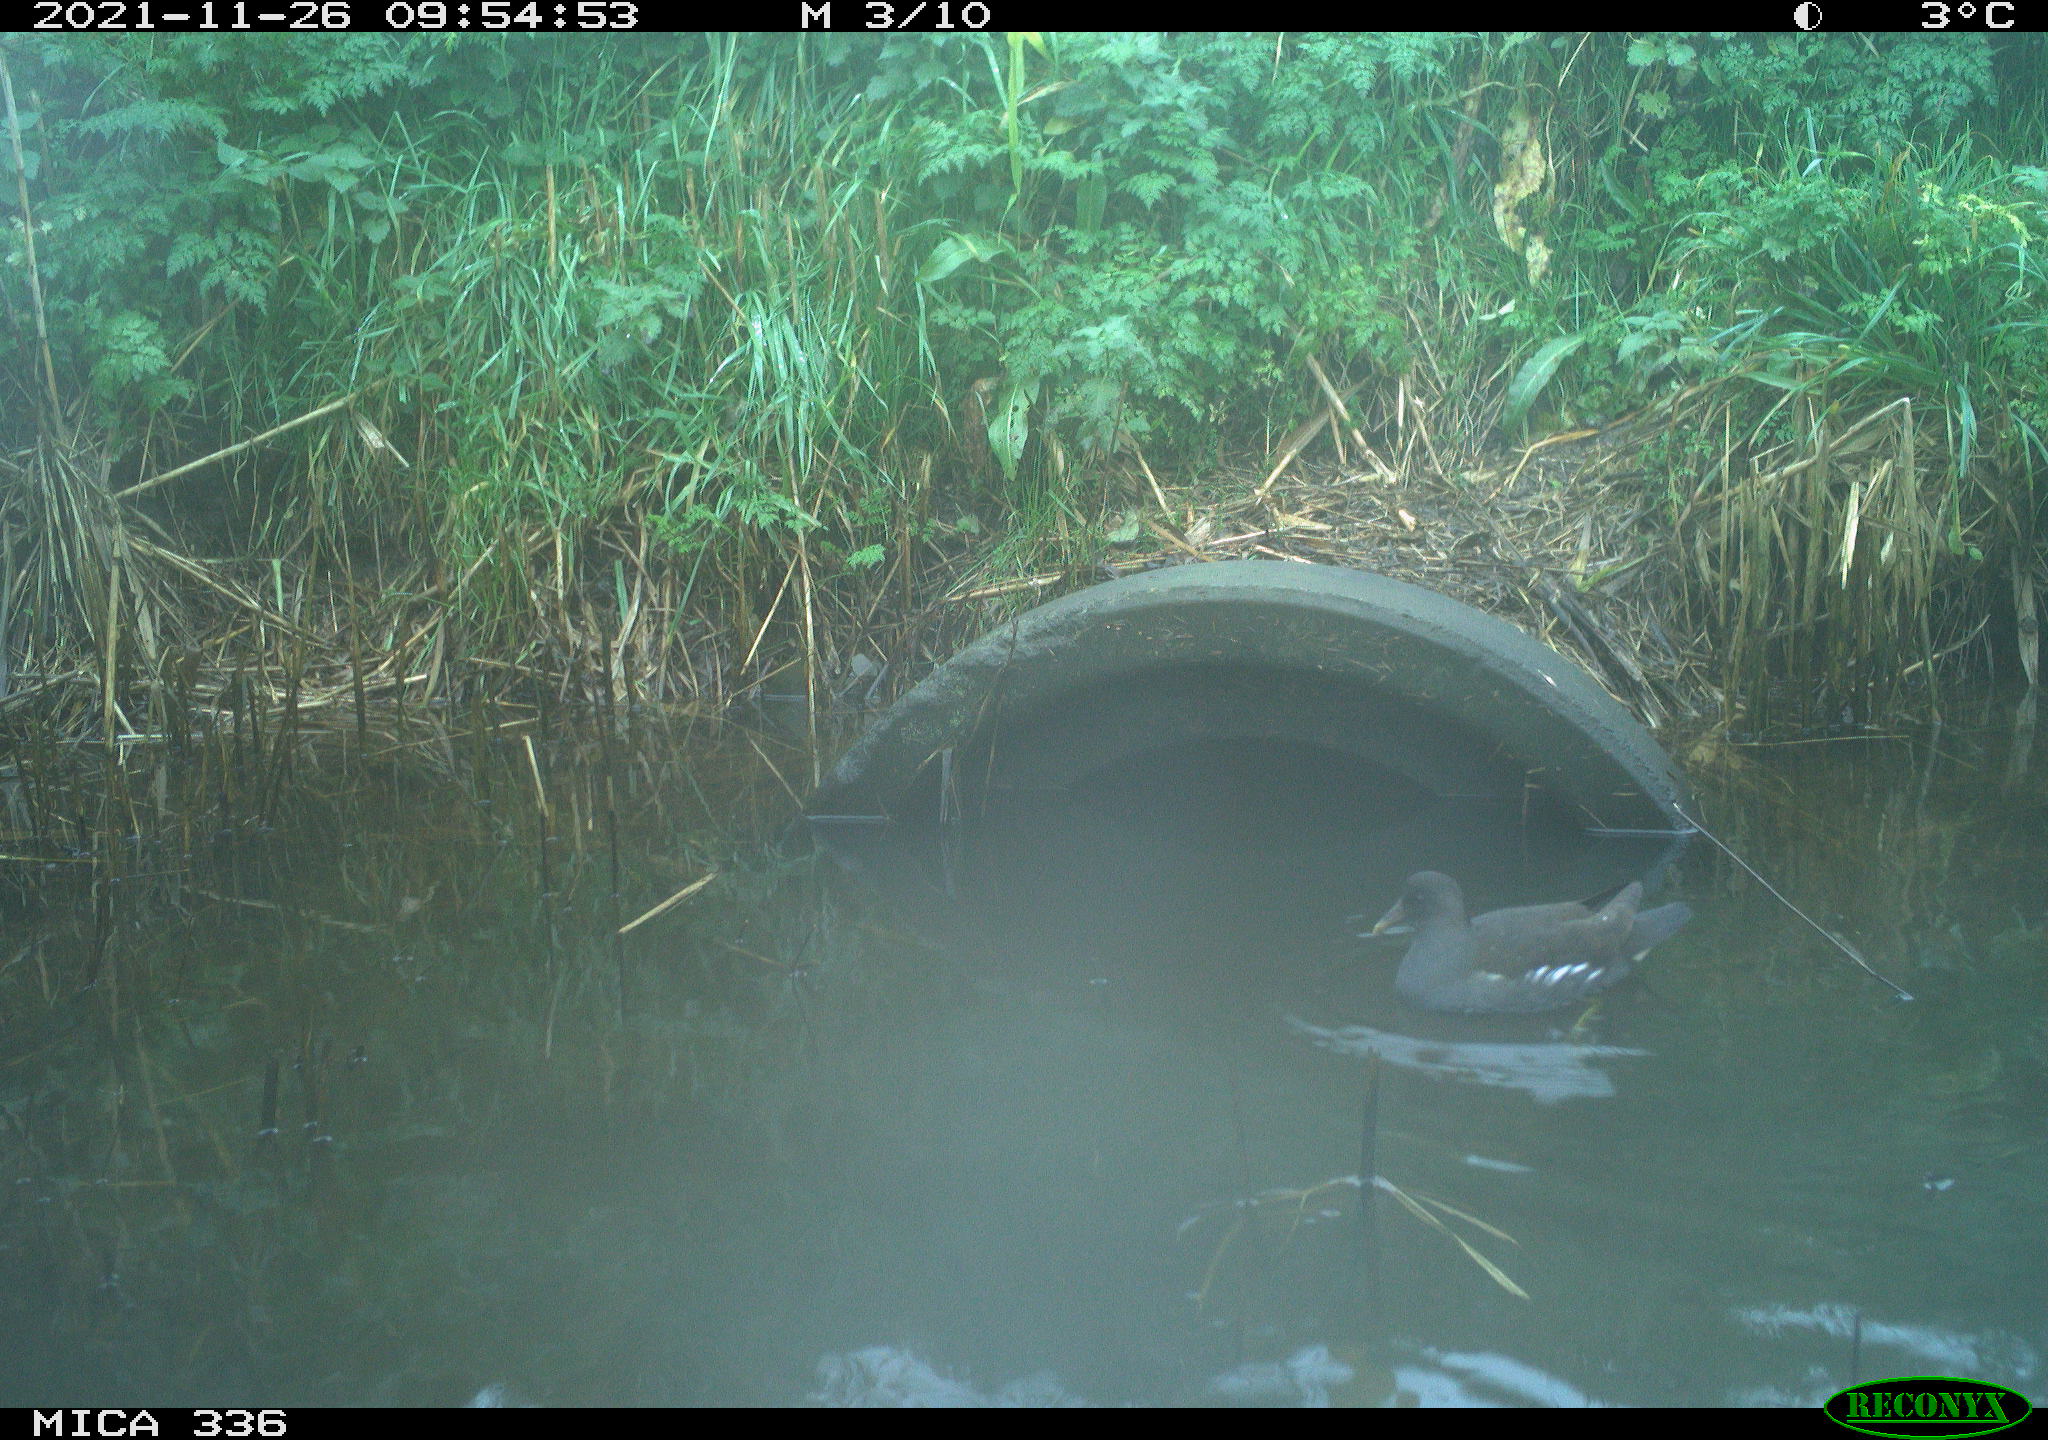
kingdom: Animalia
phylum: Chordata
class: Aves
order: Gruiformes
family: Rallidae
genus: Gallinula
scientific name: Gallinula chloropus
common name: Common moorhen
